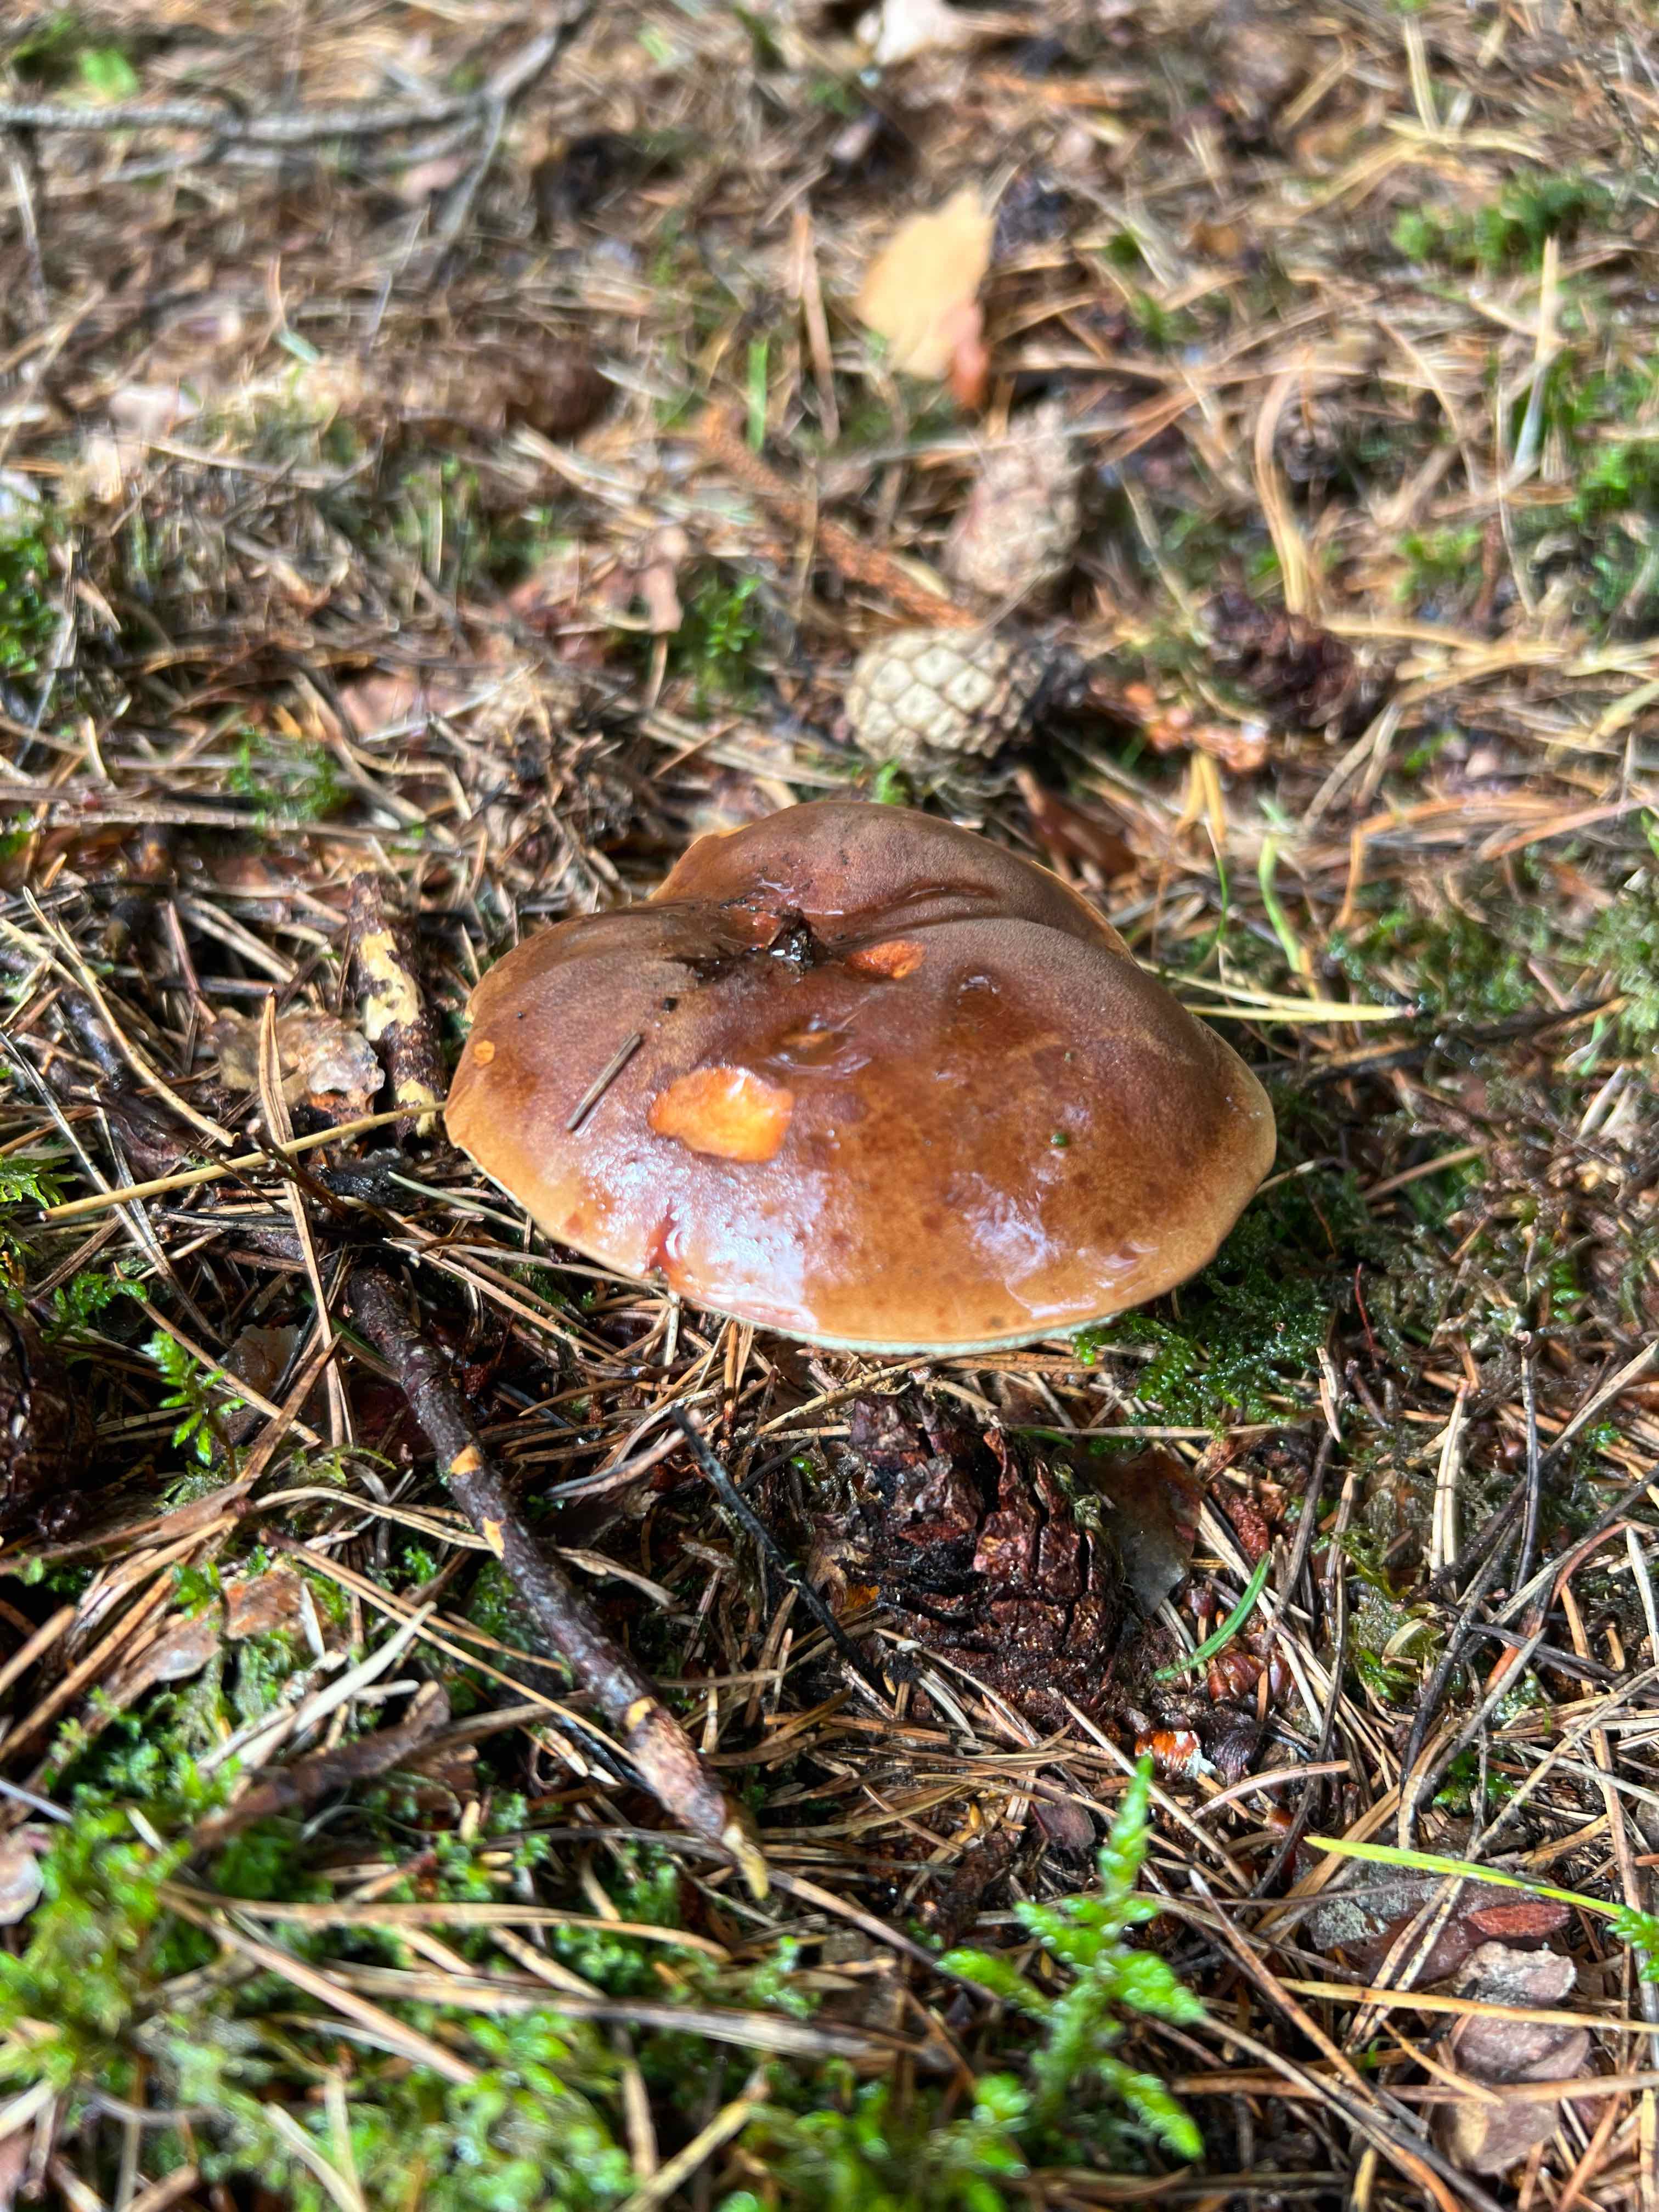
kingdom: Fungi
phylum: Basidiomycota
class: Agaricomycetes
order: Boletales
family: Boletaceae
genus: Imleria
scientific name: Imleria badia
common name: brunstokket rørhat
